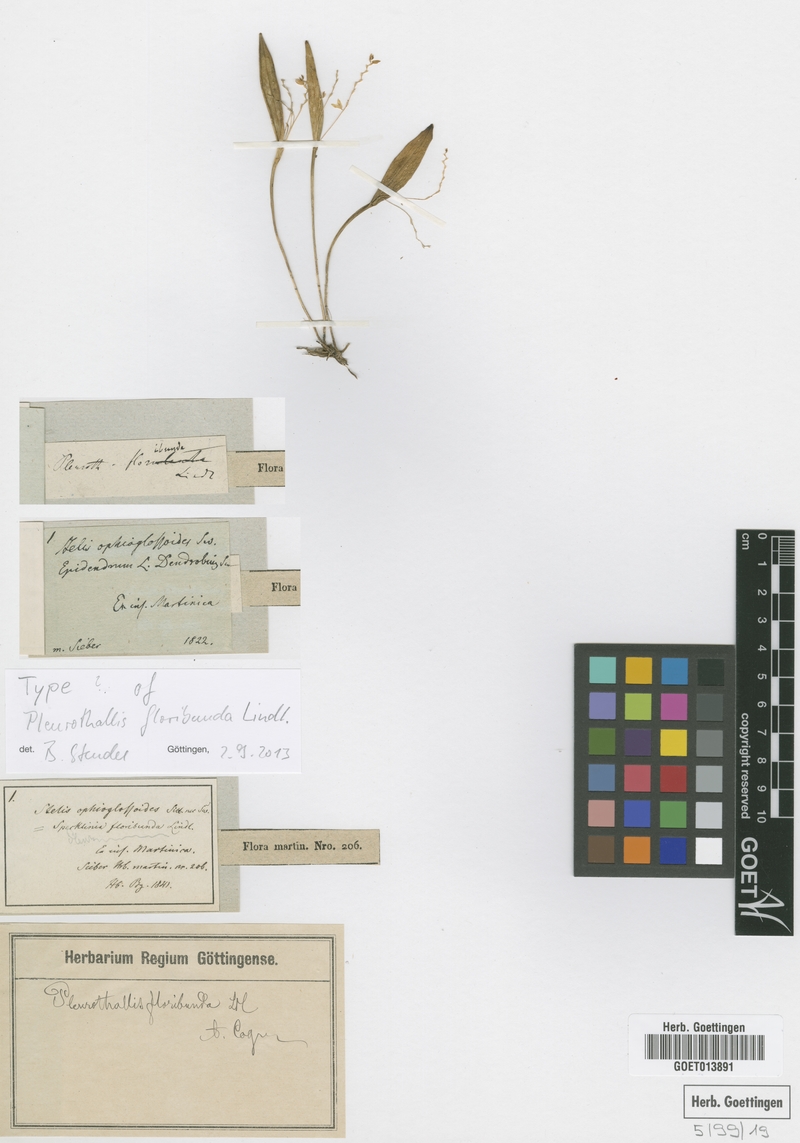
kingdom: Plantae
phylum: Tracheophyta
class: Liliopsida
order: Asparagales
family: Orchidaceae
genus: Acianthera
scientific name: Acianthera capillaris
